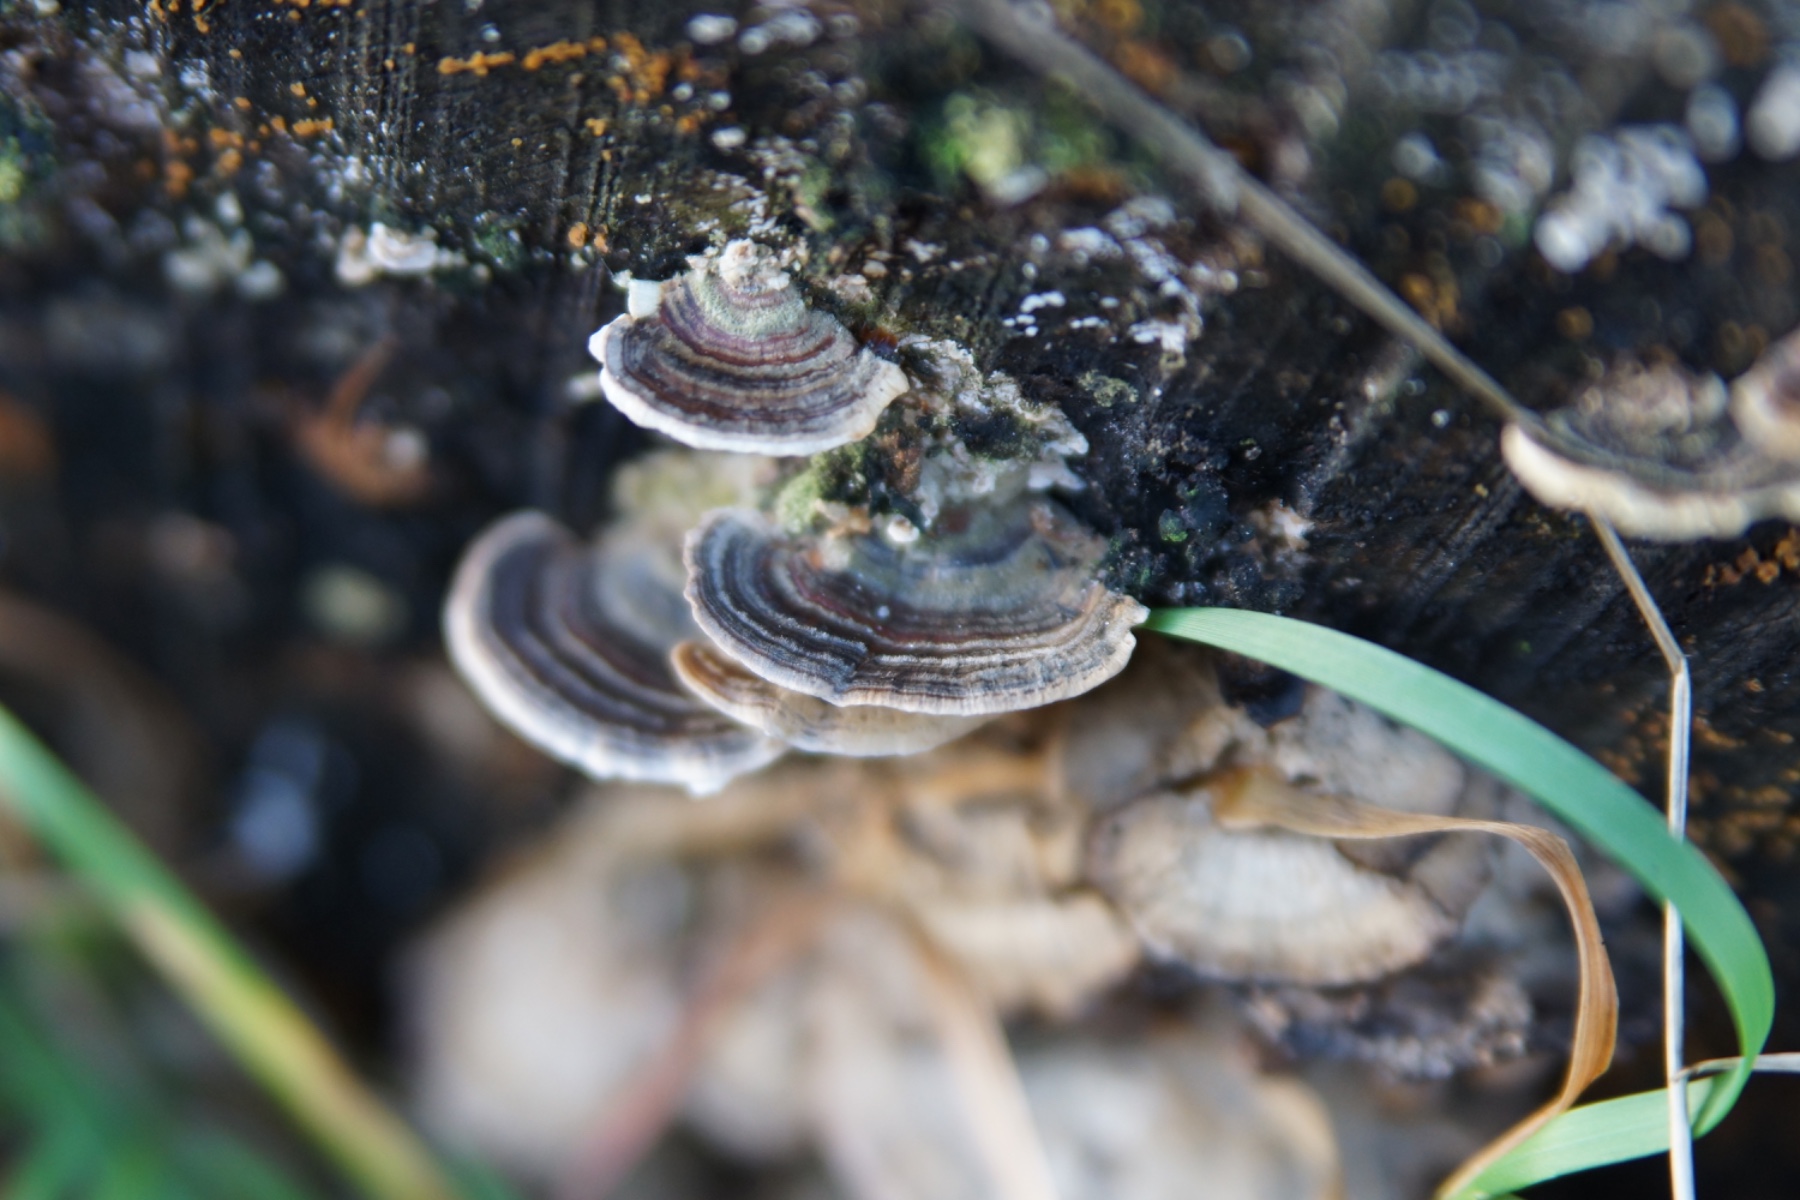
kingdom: Fungi
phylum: Basidiomycota
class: Agaricomycetes
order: Polyporales
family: Polyporaceae
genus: Trametes
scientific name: Trametes versicolor
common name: broget læderporesvamp
